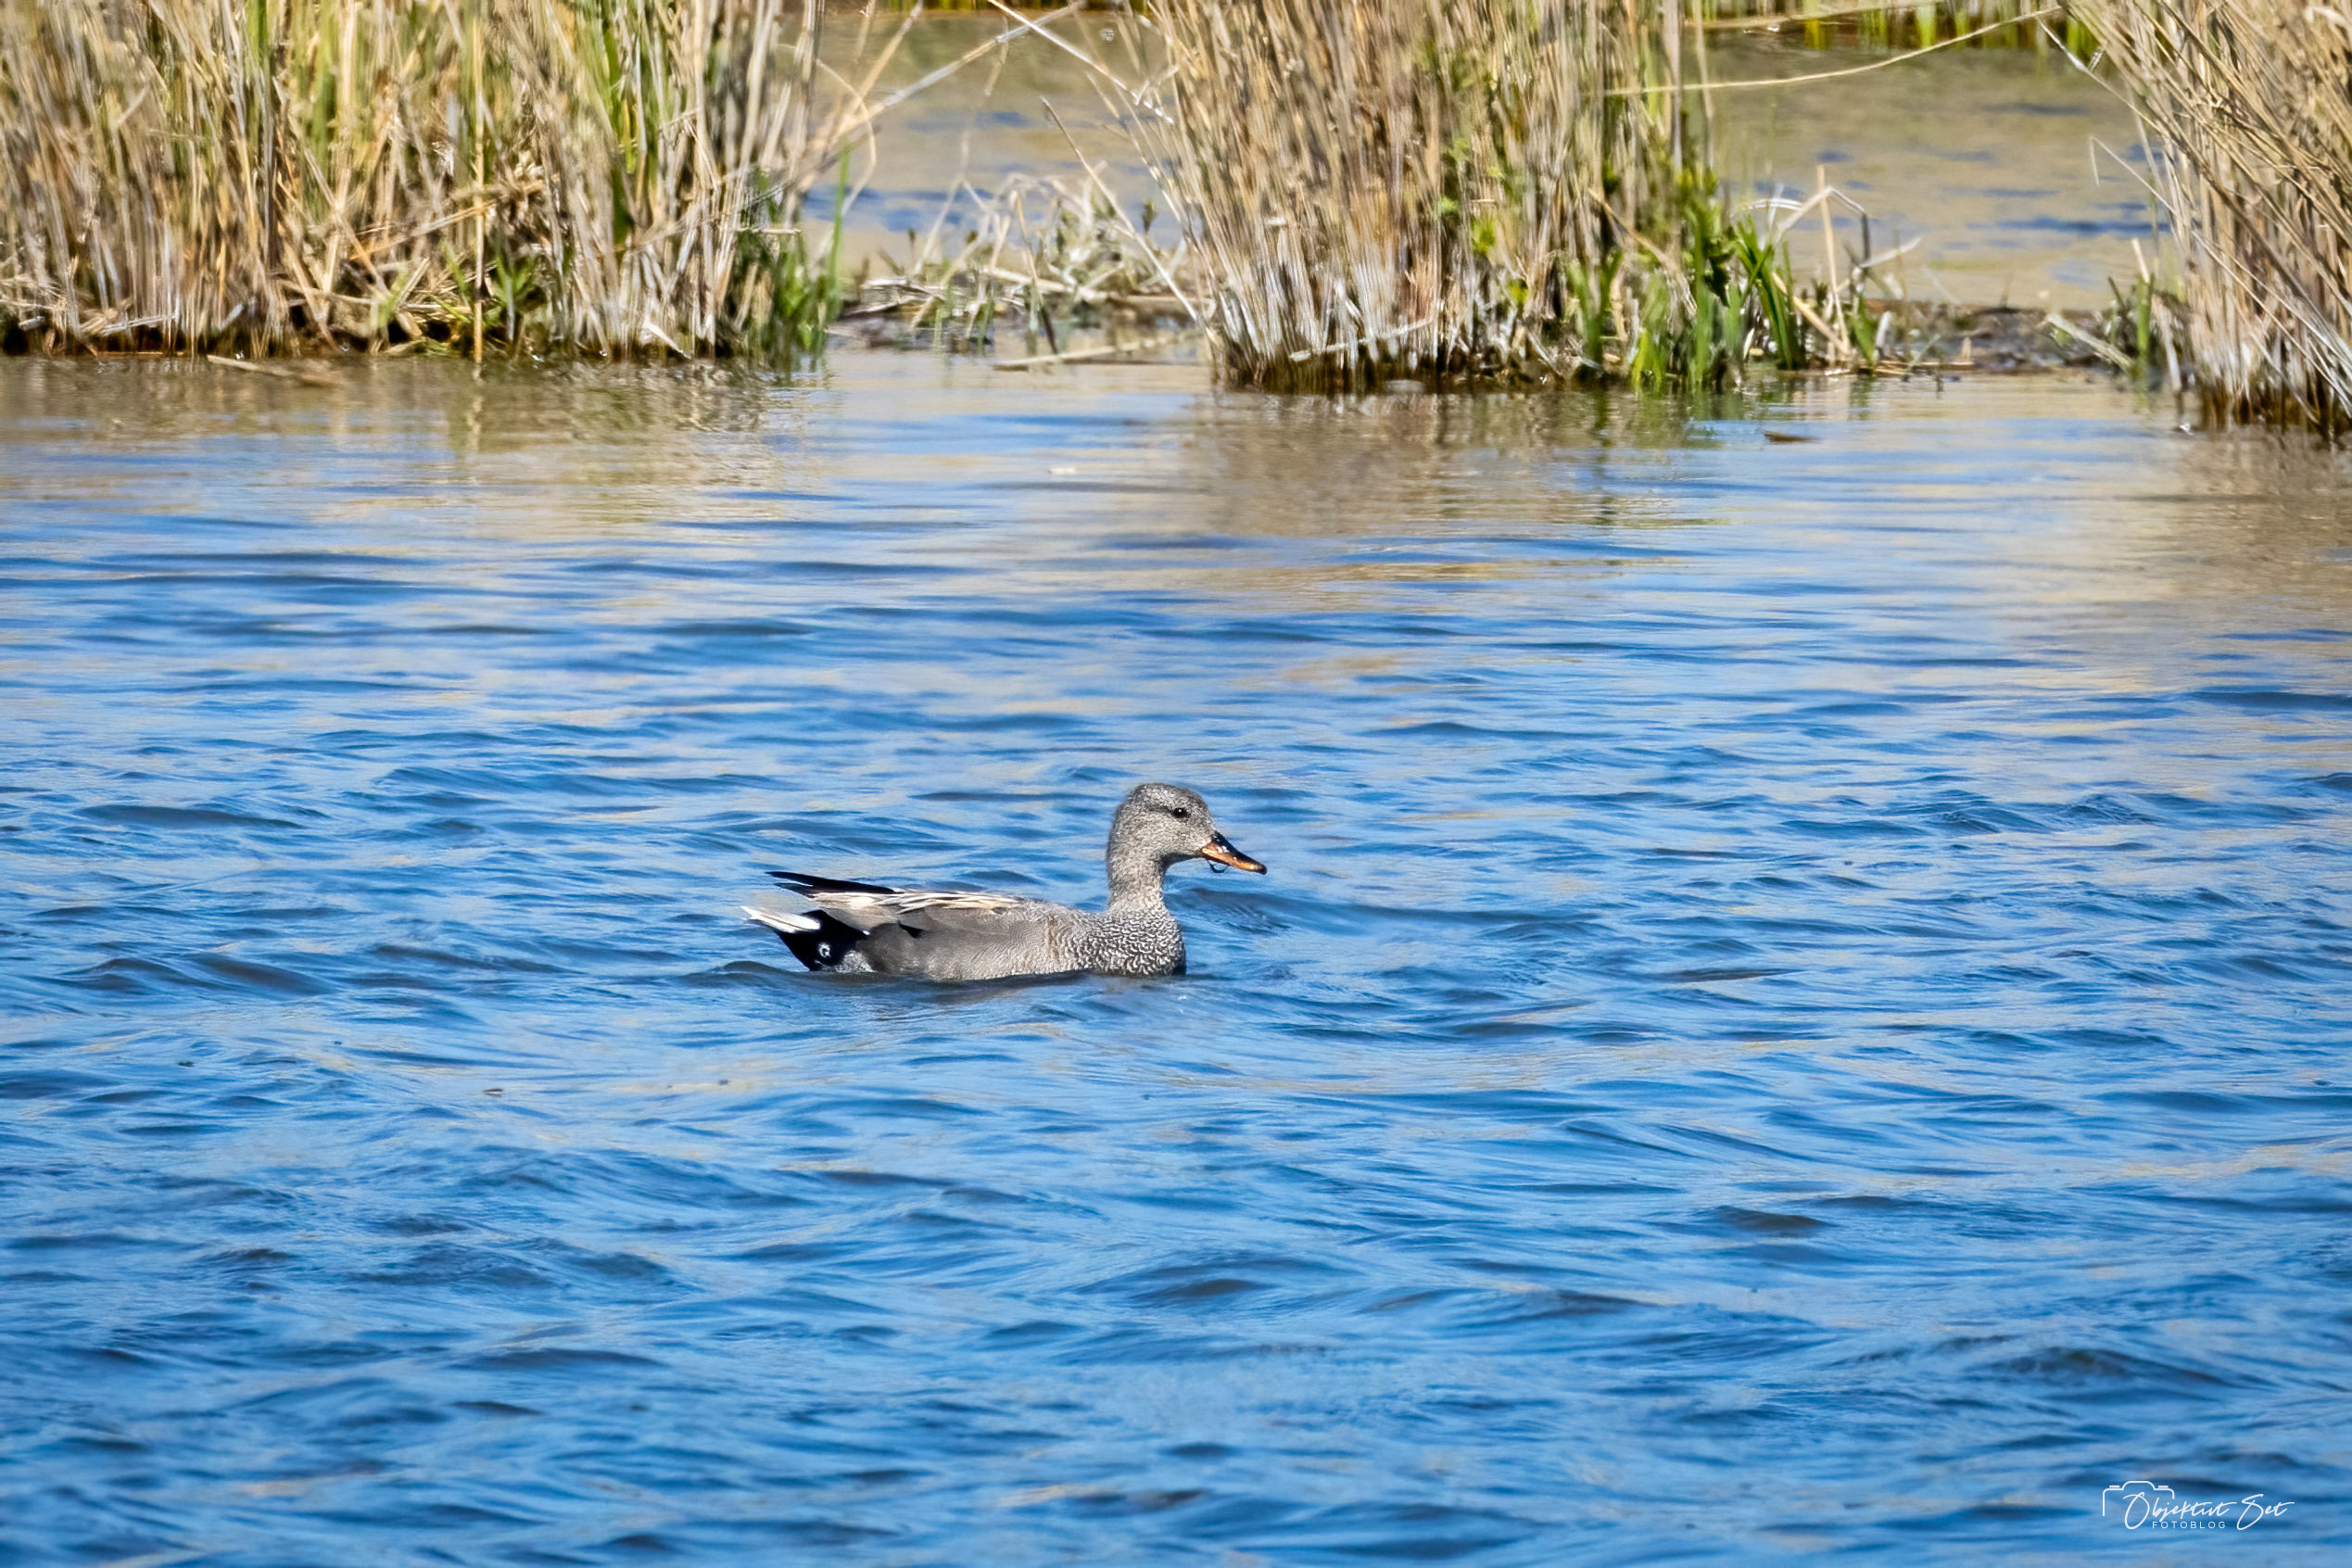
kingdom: Animalia
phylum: Chordata
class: Aves
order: Anseriformes
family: Anatidae
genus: Mareca
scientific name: Mareca strepera
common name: Knarand
